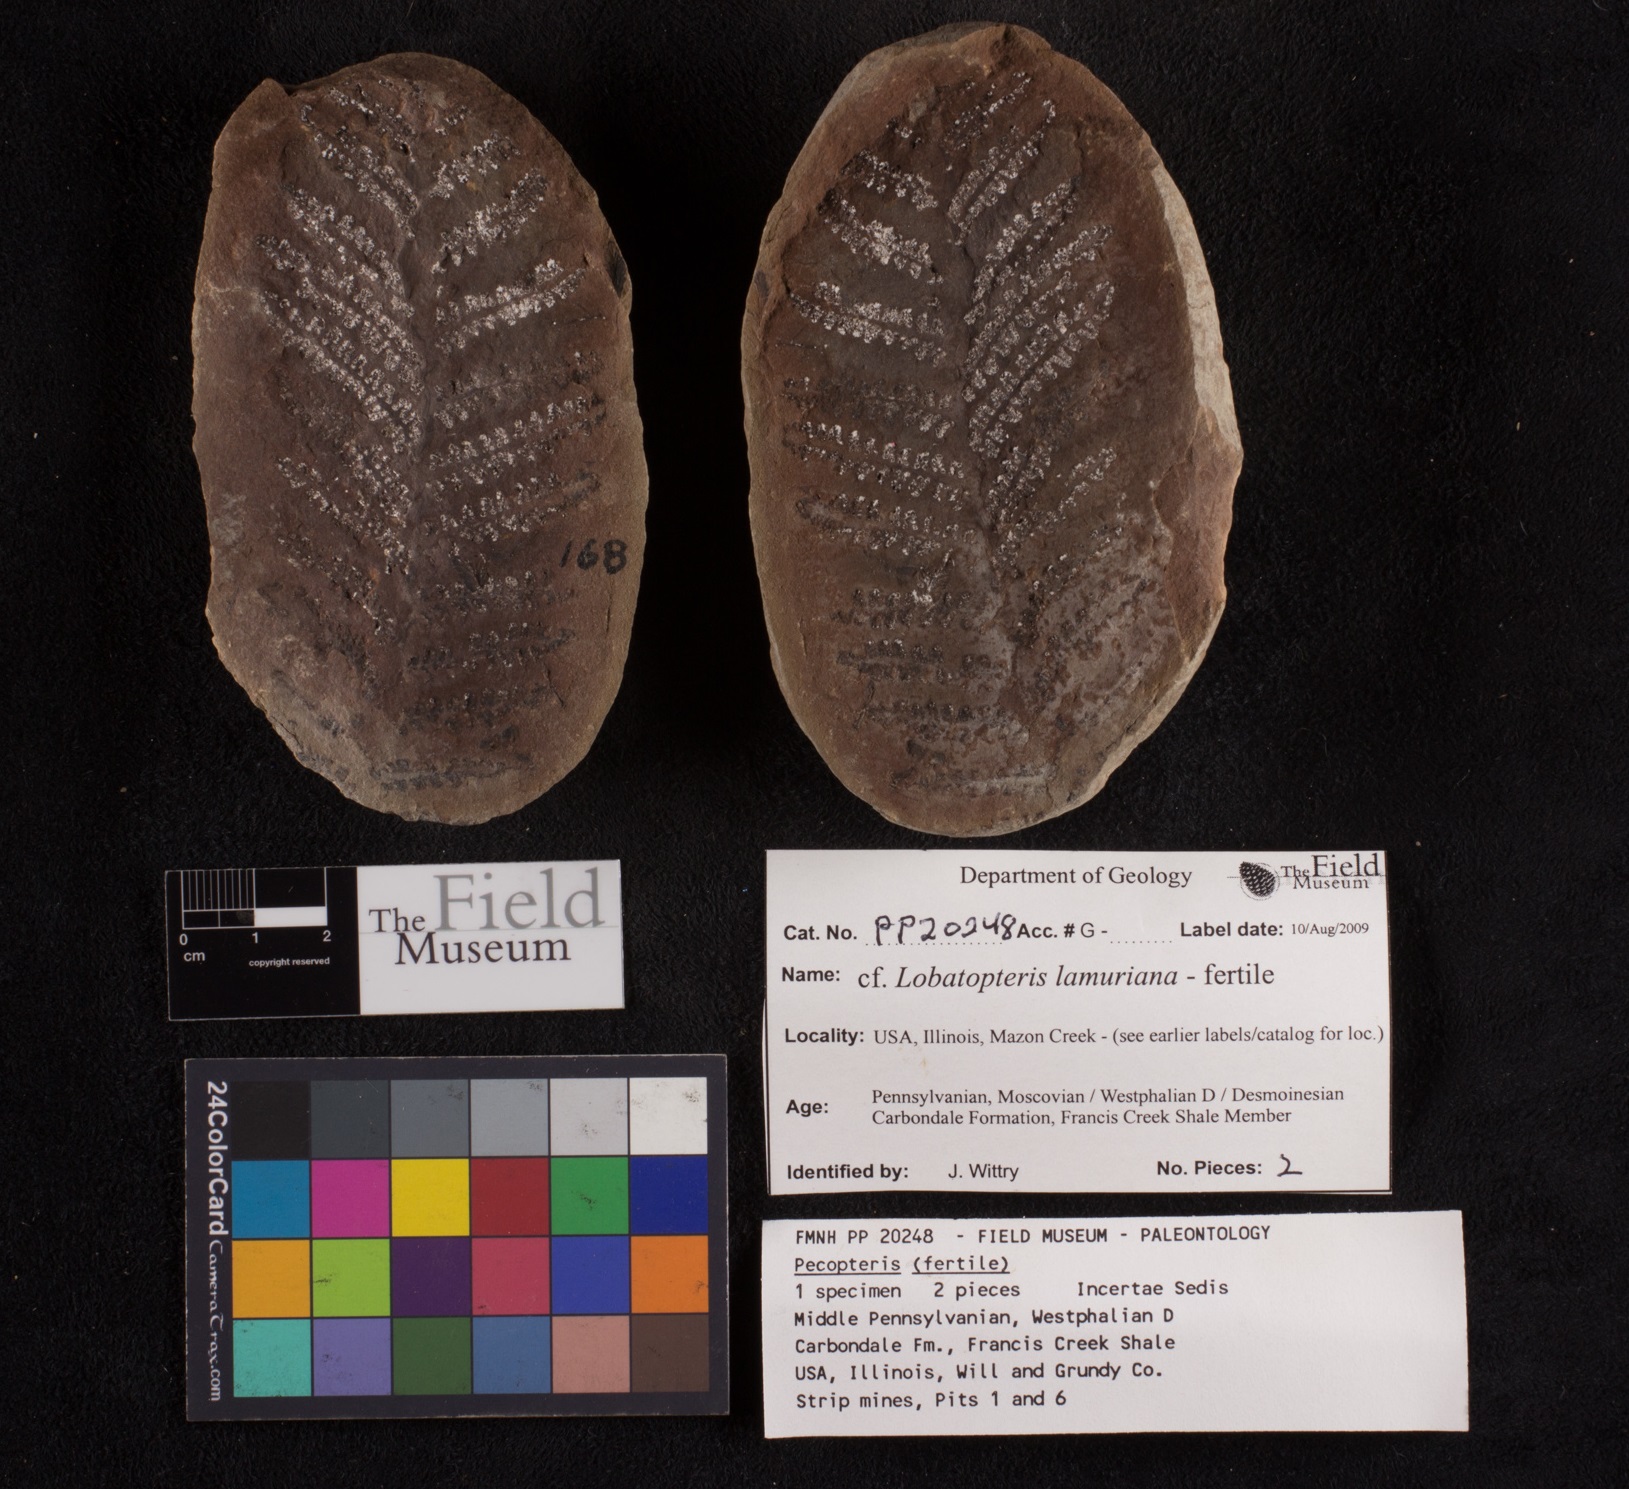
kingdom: Plantae
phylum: Tracheophyta
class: Polypodiopsida
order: Marattiales
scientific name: Marattiales
